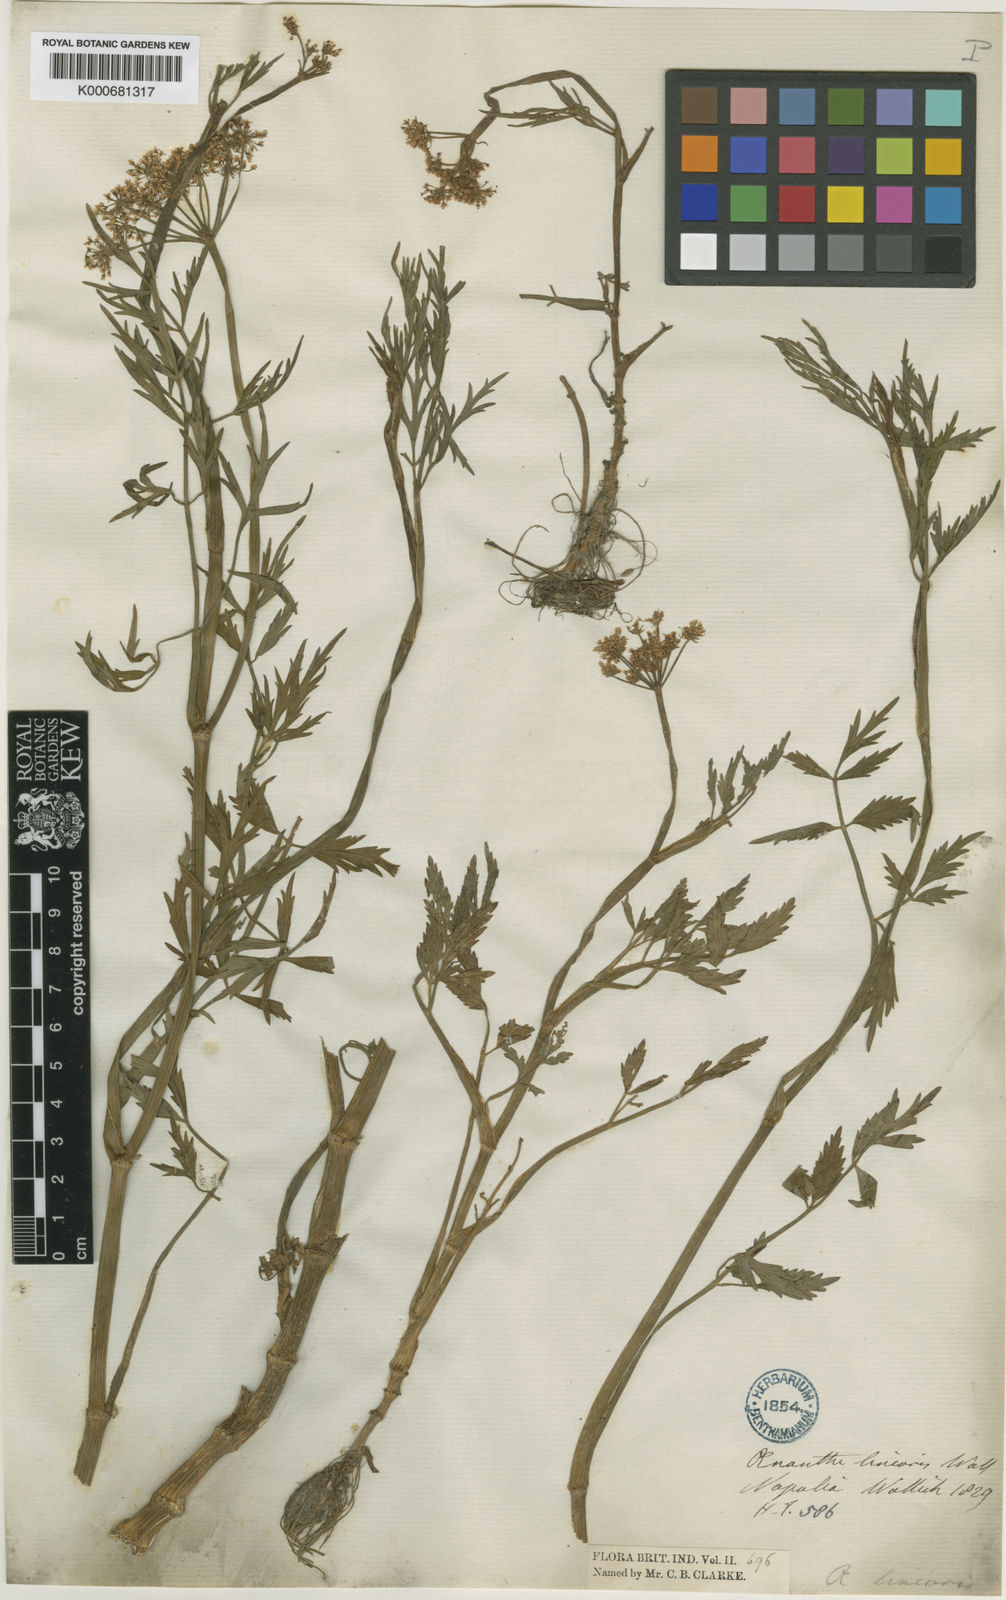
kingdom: Plantae
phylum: Tracheophyta
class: Magnoliopsida
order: Apiales
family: Apiaceae
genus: Oenanthe
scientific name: Oenanthe linearis
